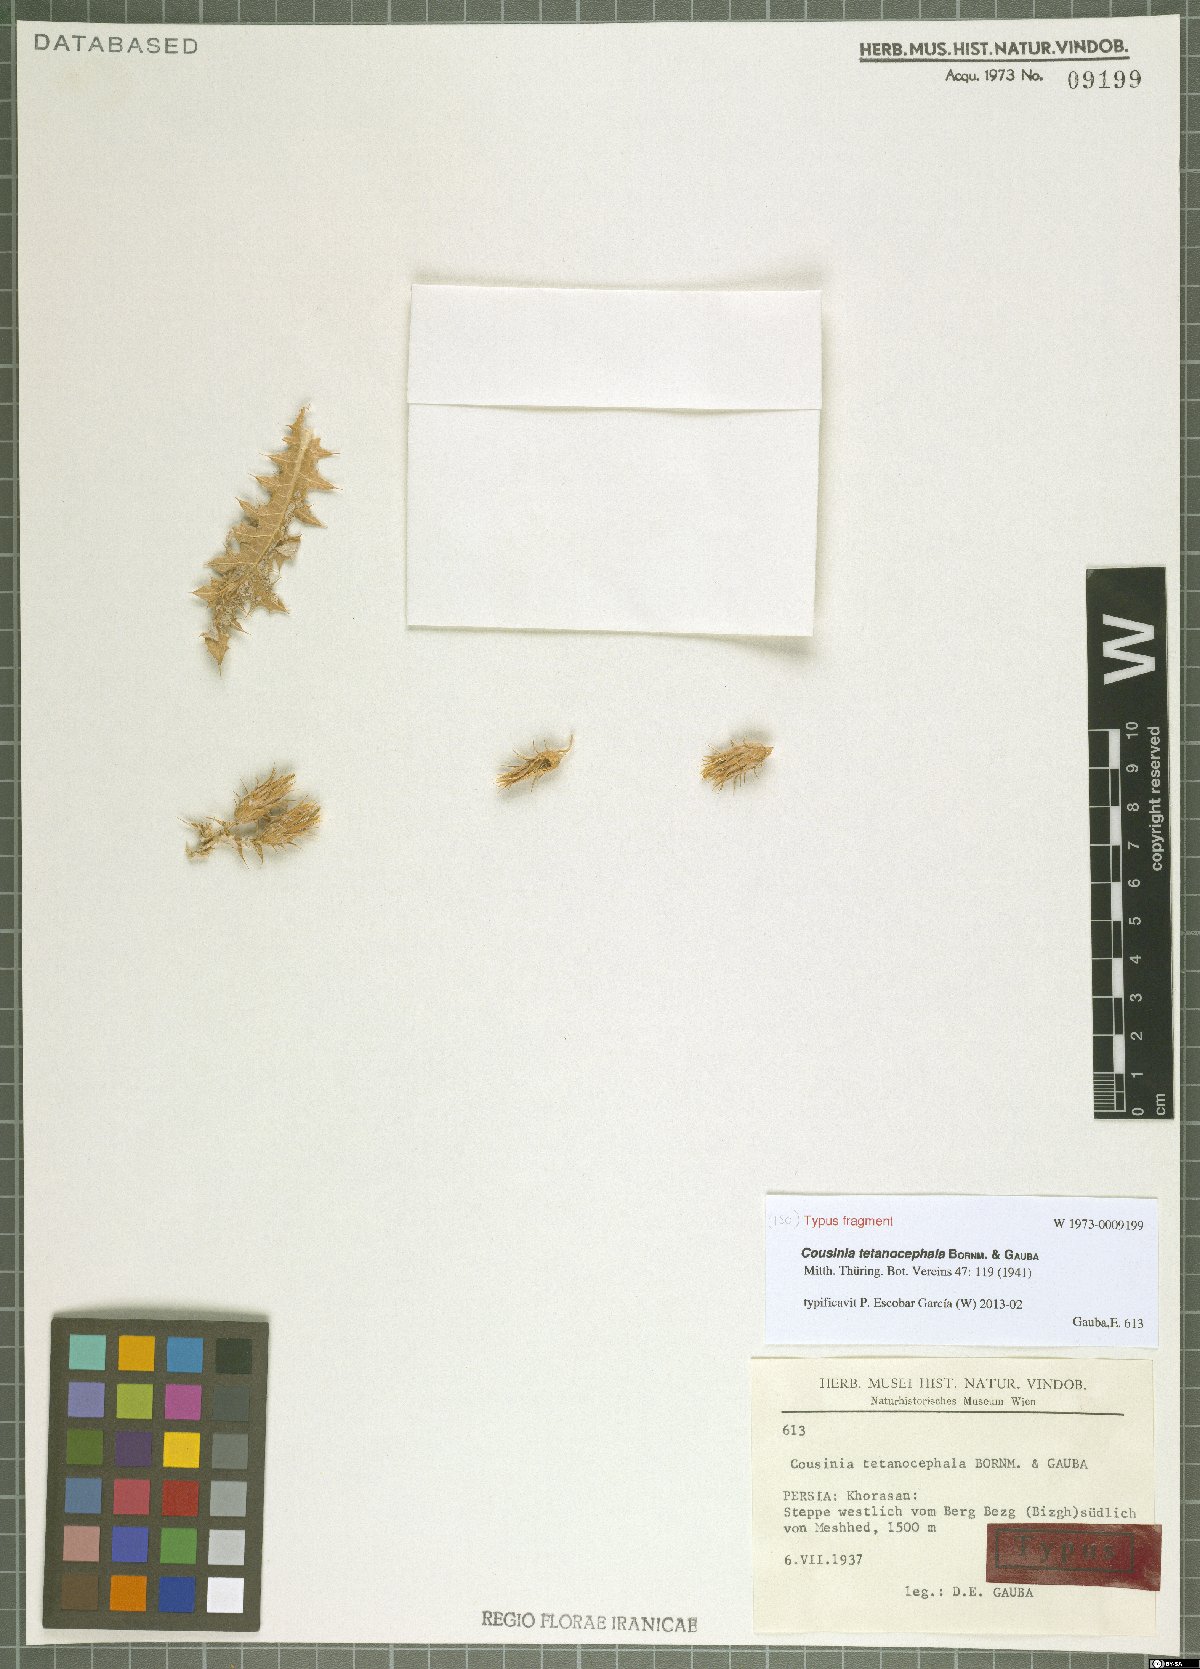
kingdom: Plantae
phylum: Tracheophyta
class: Magnoliopsida
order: Asterales
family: Asteraceae
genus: Cousinia
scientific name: Cousinia tetanocephala
